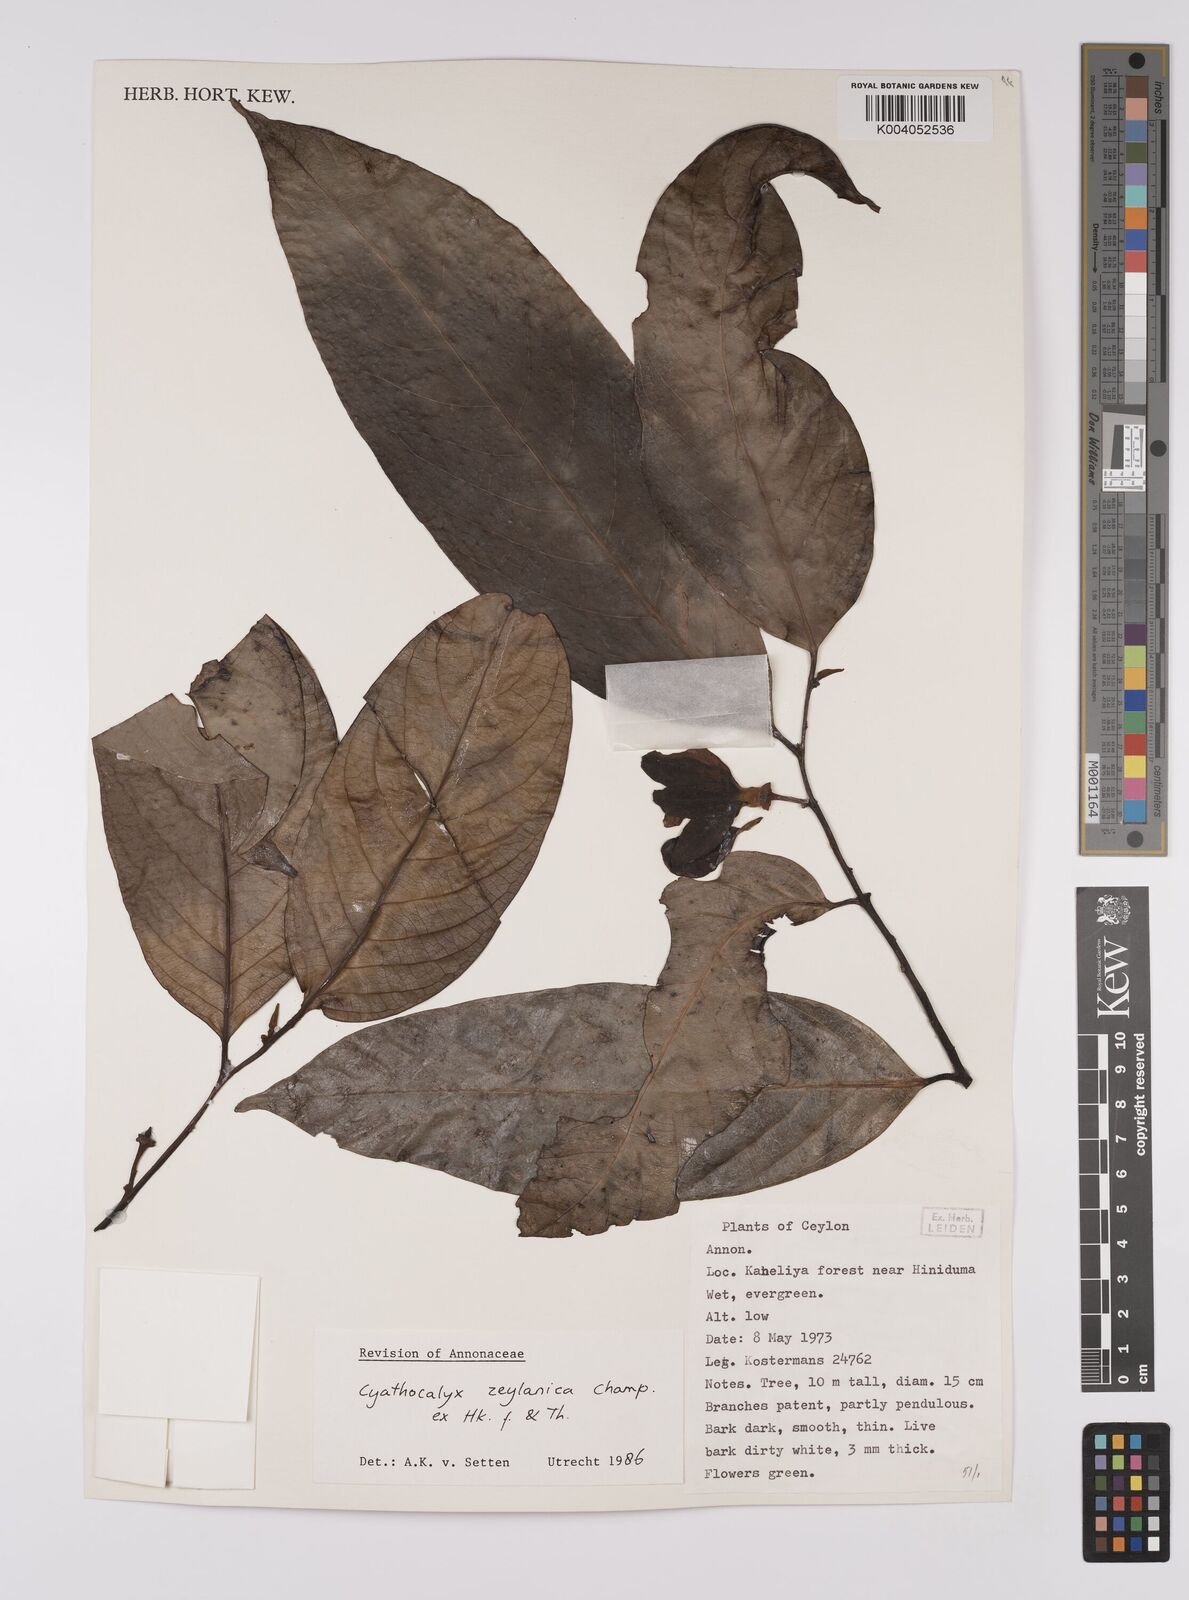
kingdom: Plantae
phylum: Tracheophyta
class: Magnoliopsida
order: Magnoliales
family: Annonaceae
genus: Cyathocalyx
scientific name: Cyathocalyx zeylanicus
